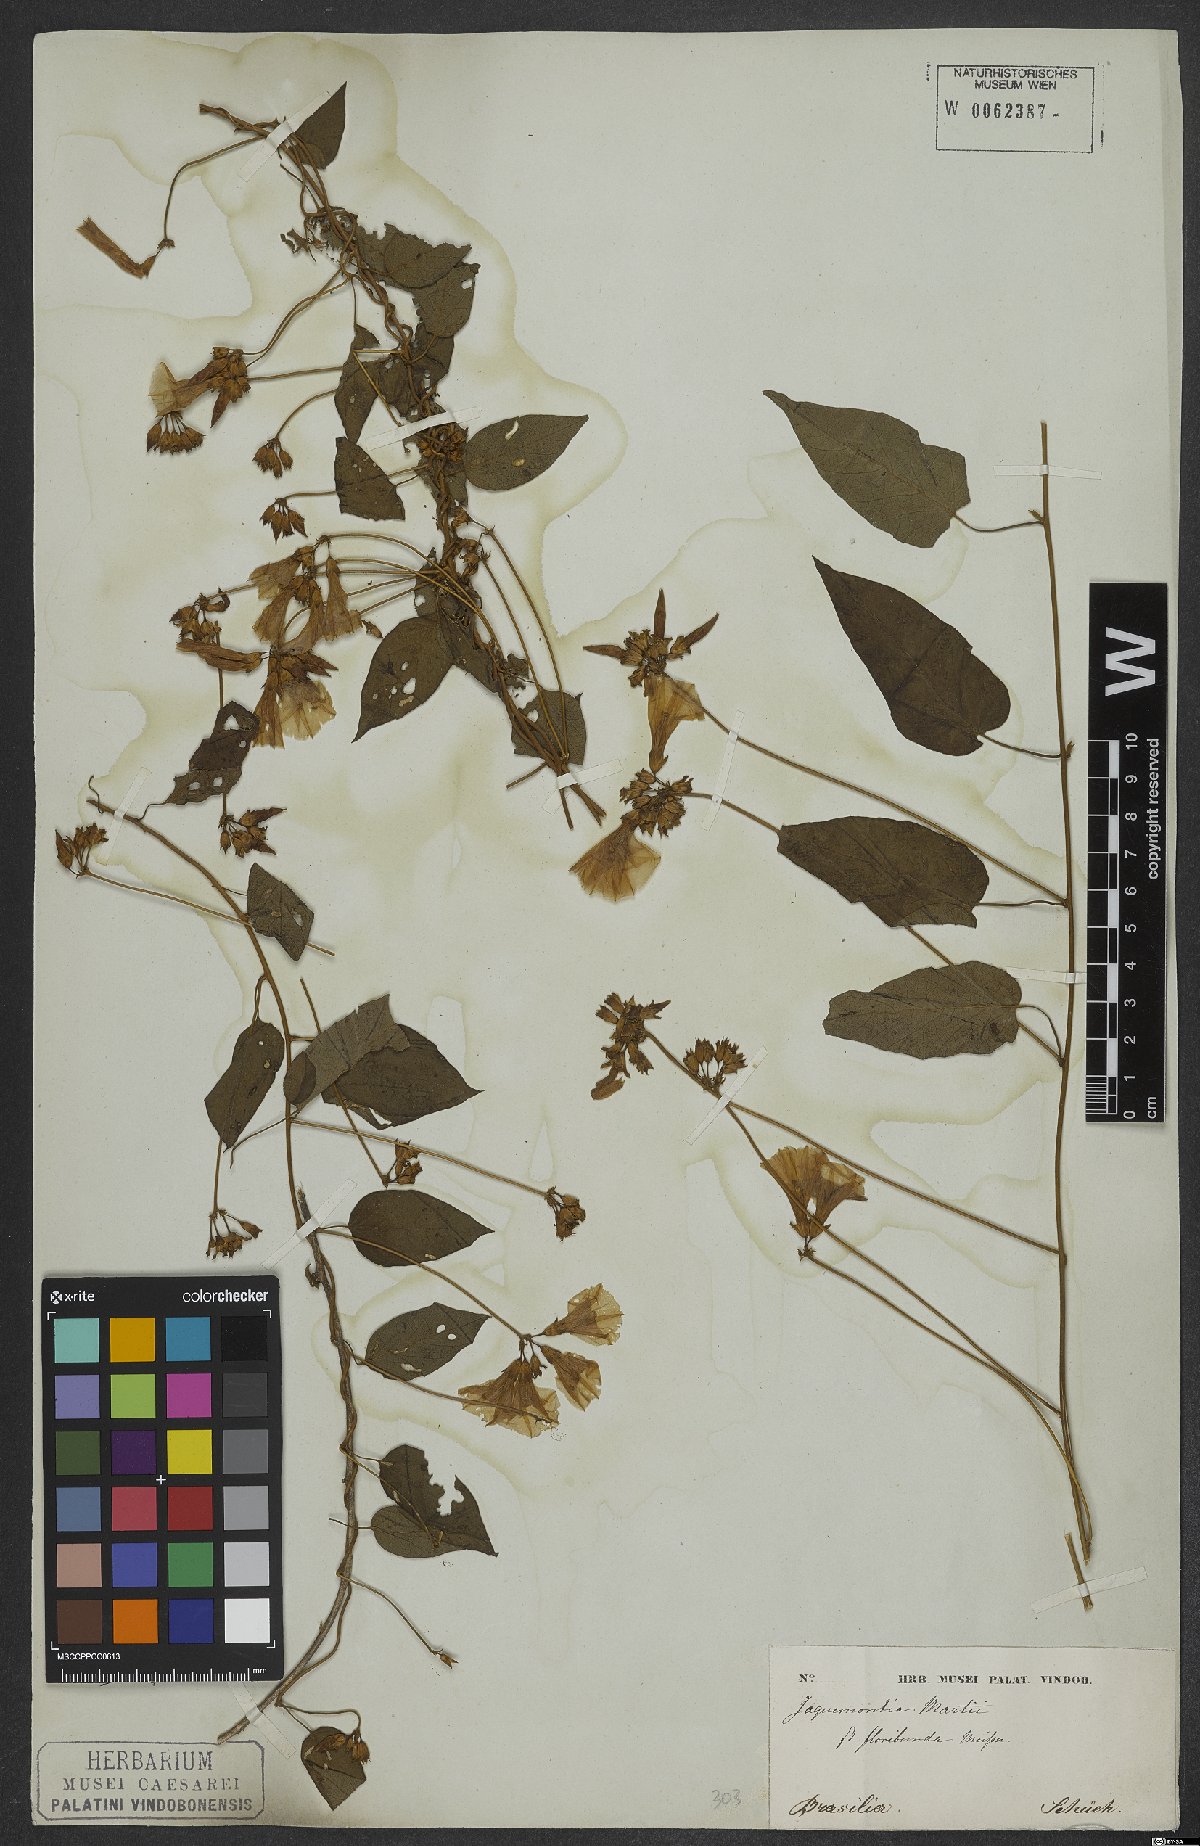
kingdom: Plantae
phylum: Tracheophyta
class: Magnoliopsida
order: Solanales
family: Convolvulaceae
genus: Jacquemontia
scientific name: Jacquemontia martii
